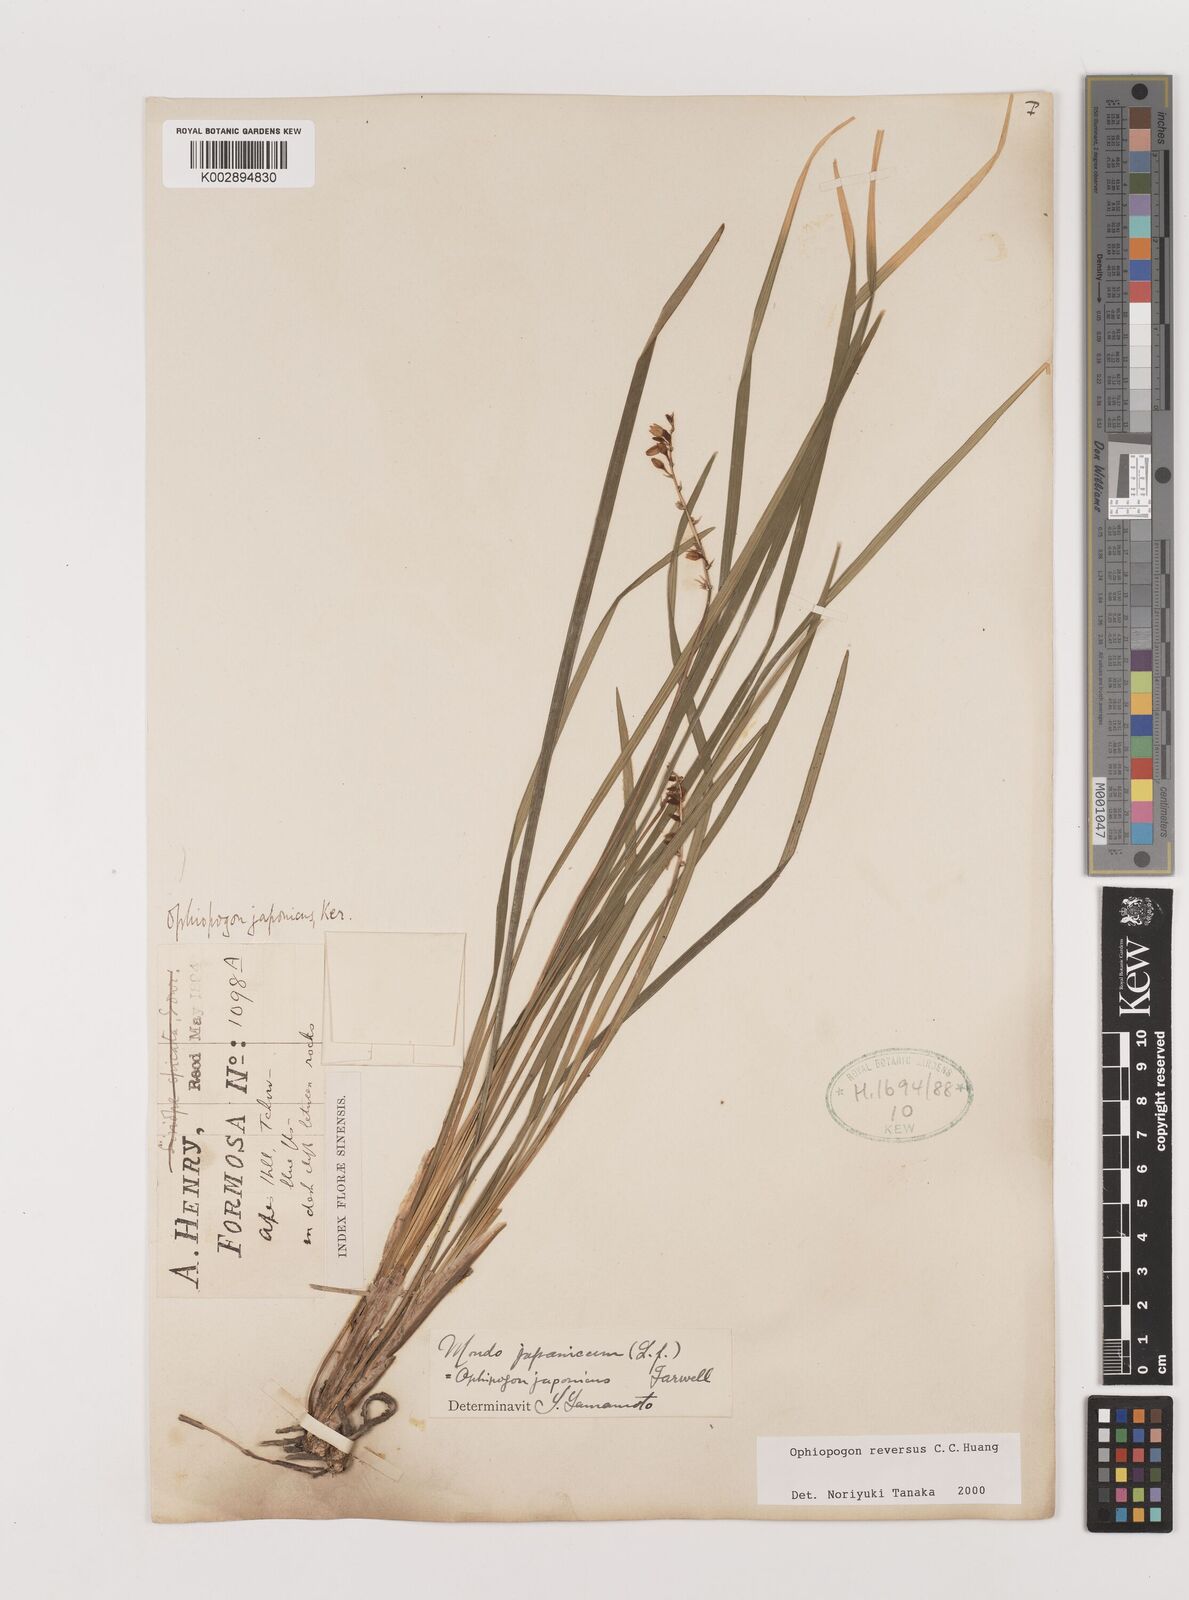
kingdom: Plantae
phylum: Tracheophyta
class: Liliopsida
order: Asparagales
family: Asparagaceae
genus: Ophiopogon
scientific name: Ophiopogon reversus
